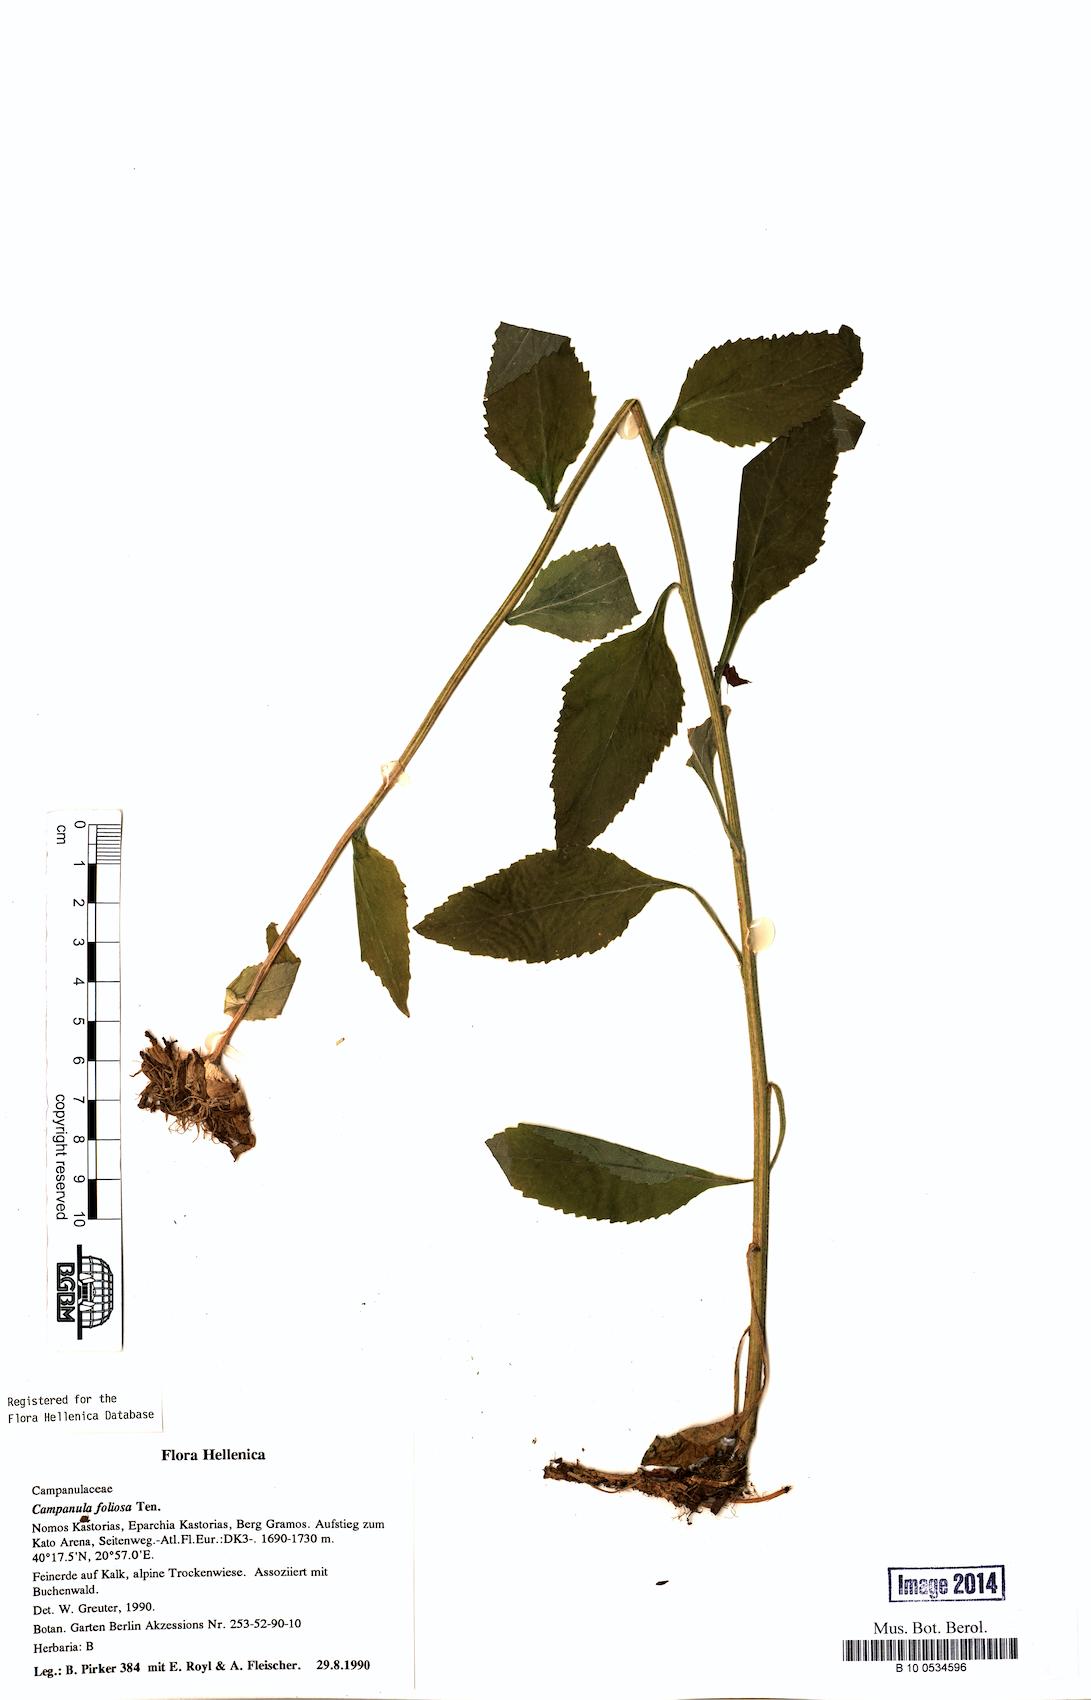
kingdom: Plantae
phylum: Tracheophyta
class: Magnoliopsida
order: Asterales
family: Campanulaceae
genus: Campanula
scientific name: Campanula foliosa
